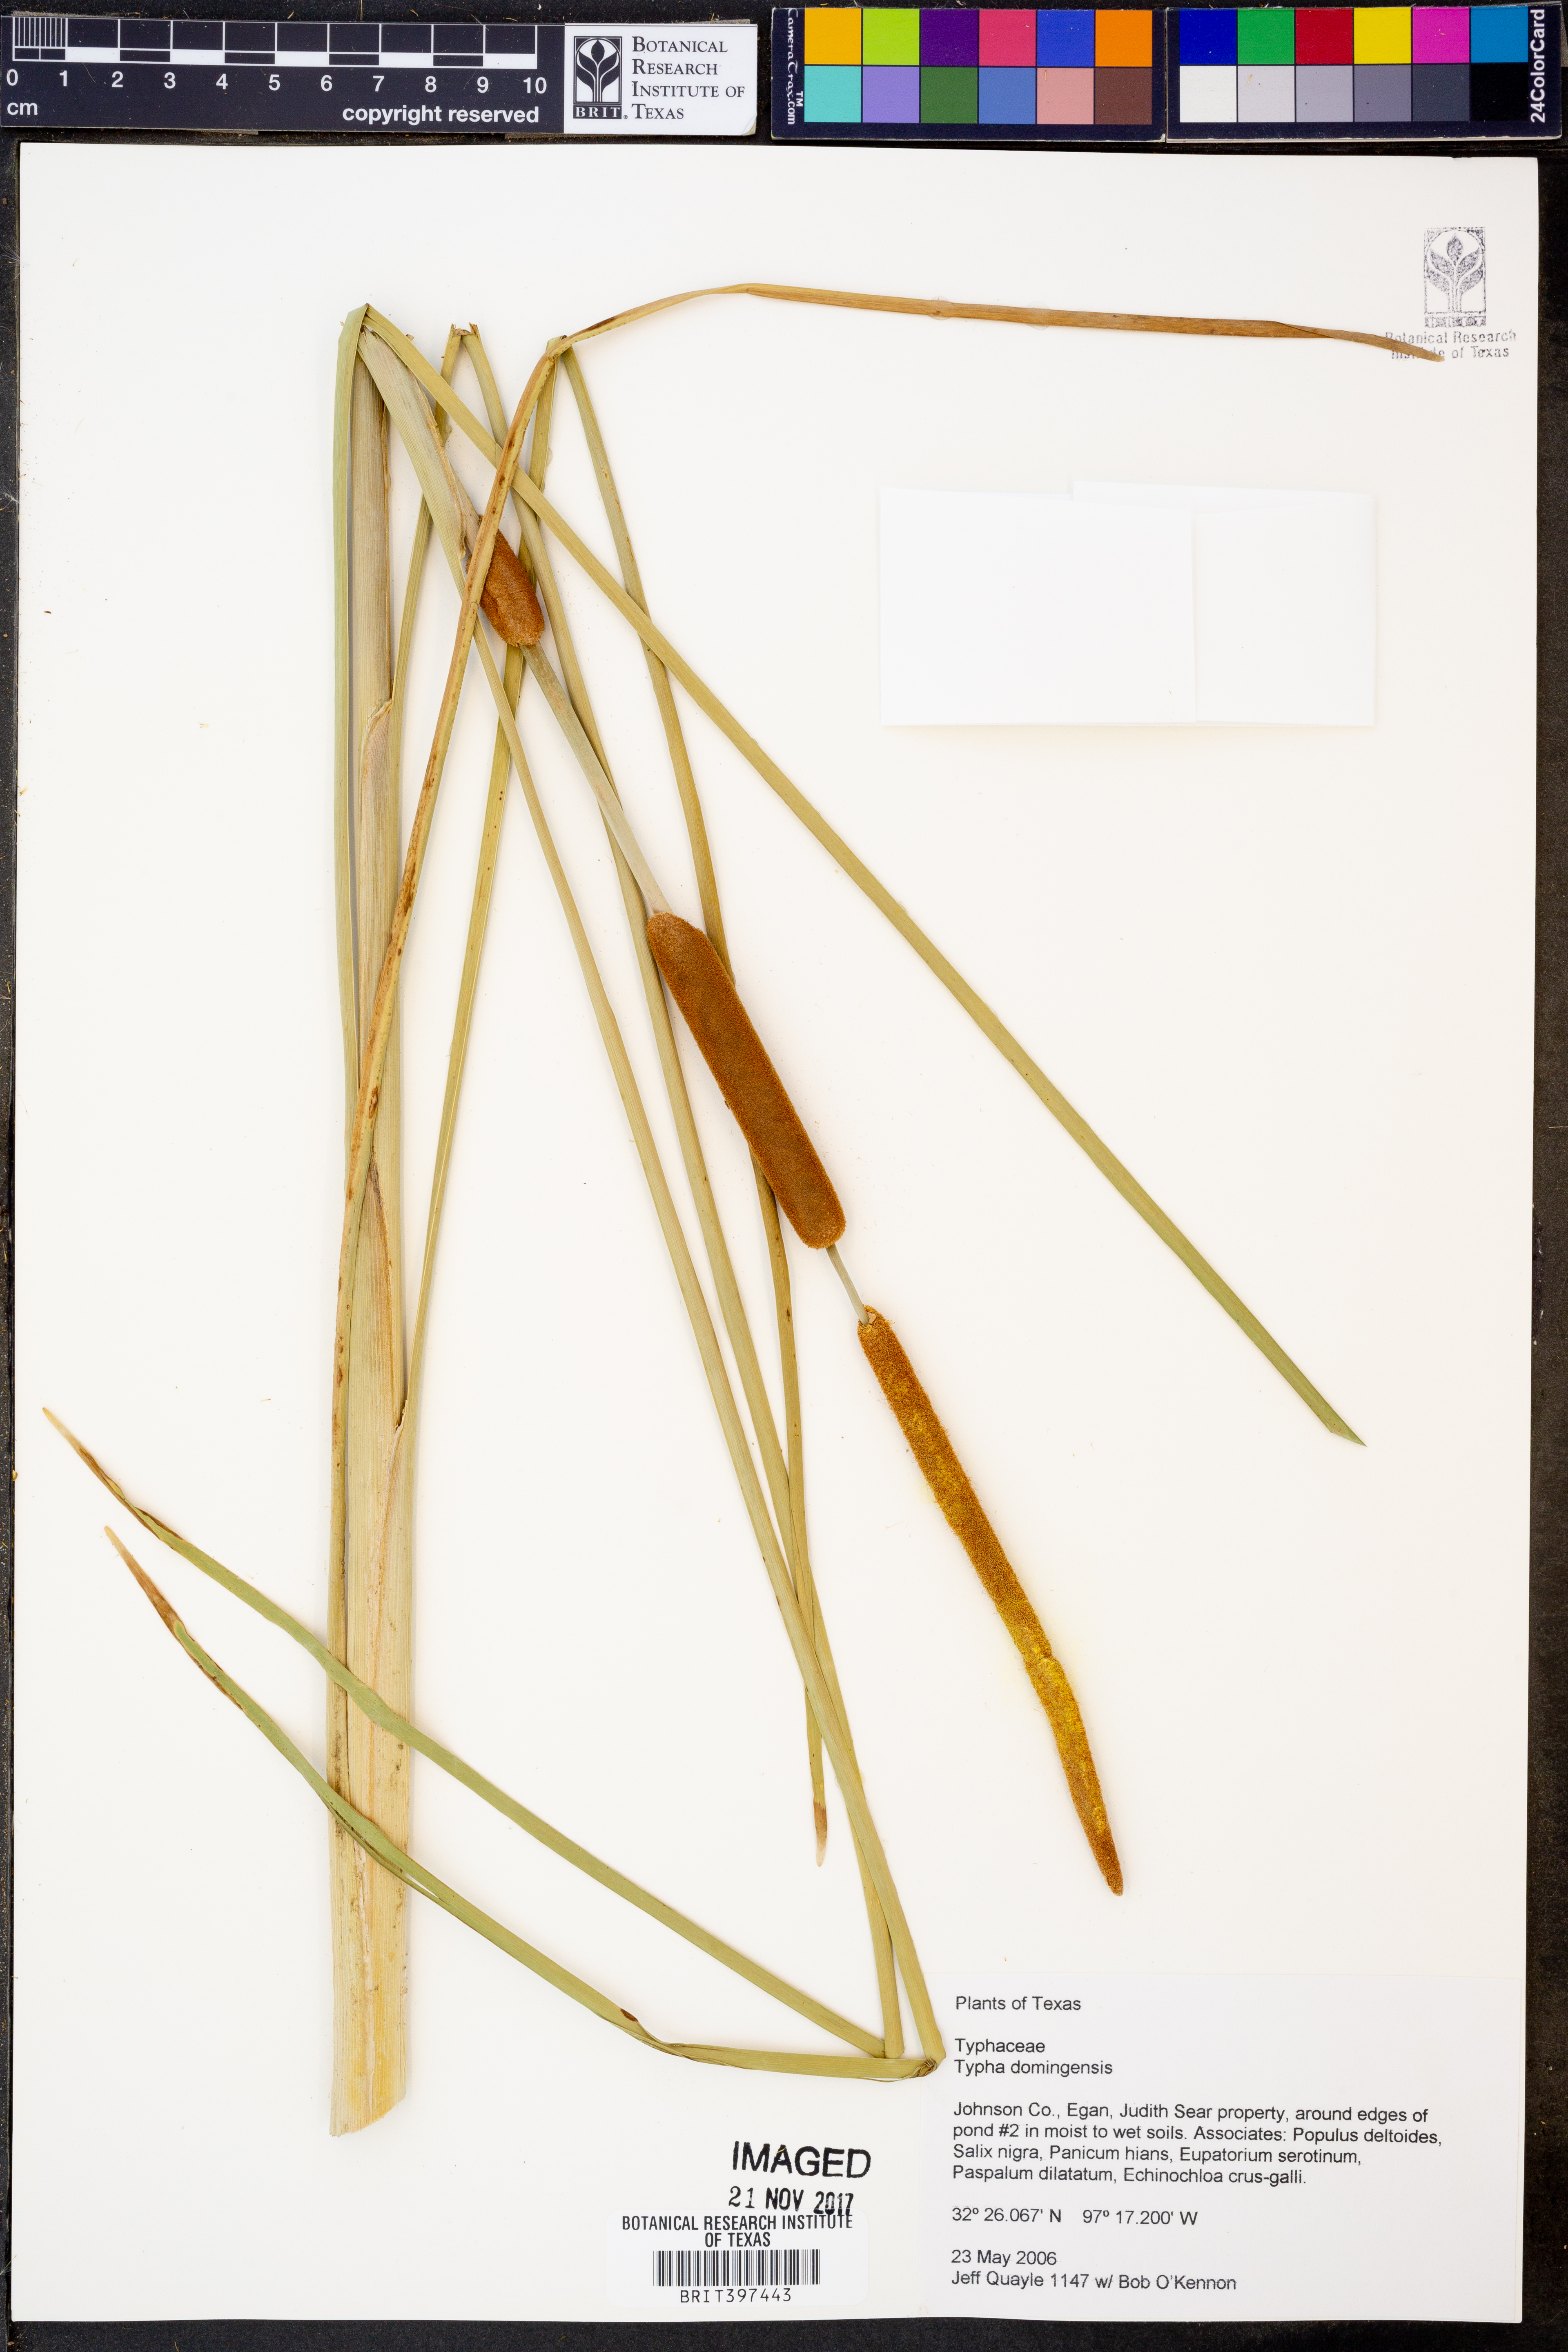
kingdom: Plantae
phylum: Tracheophyta
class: Liliopsida
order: Poales
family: Typhaceae
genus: Typha
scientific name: Typha domingensis
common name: Southern cattail
